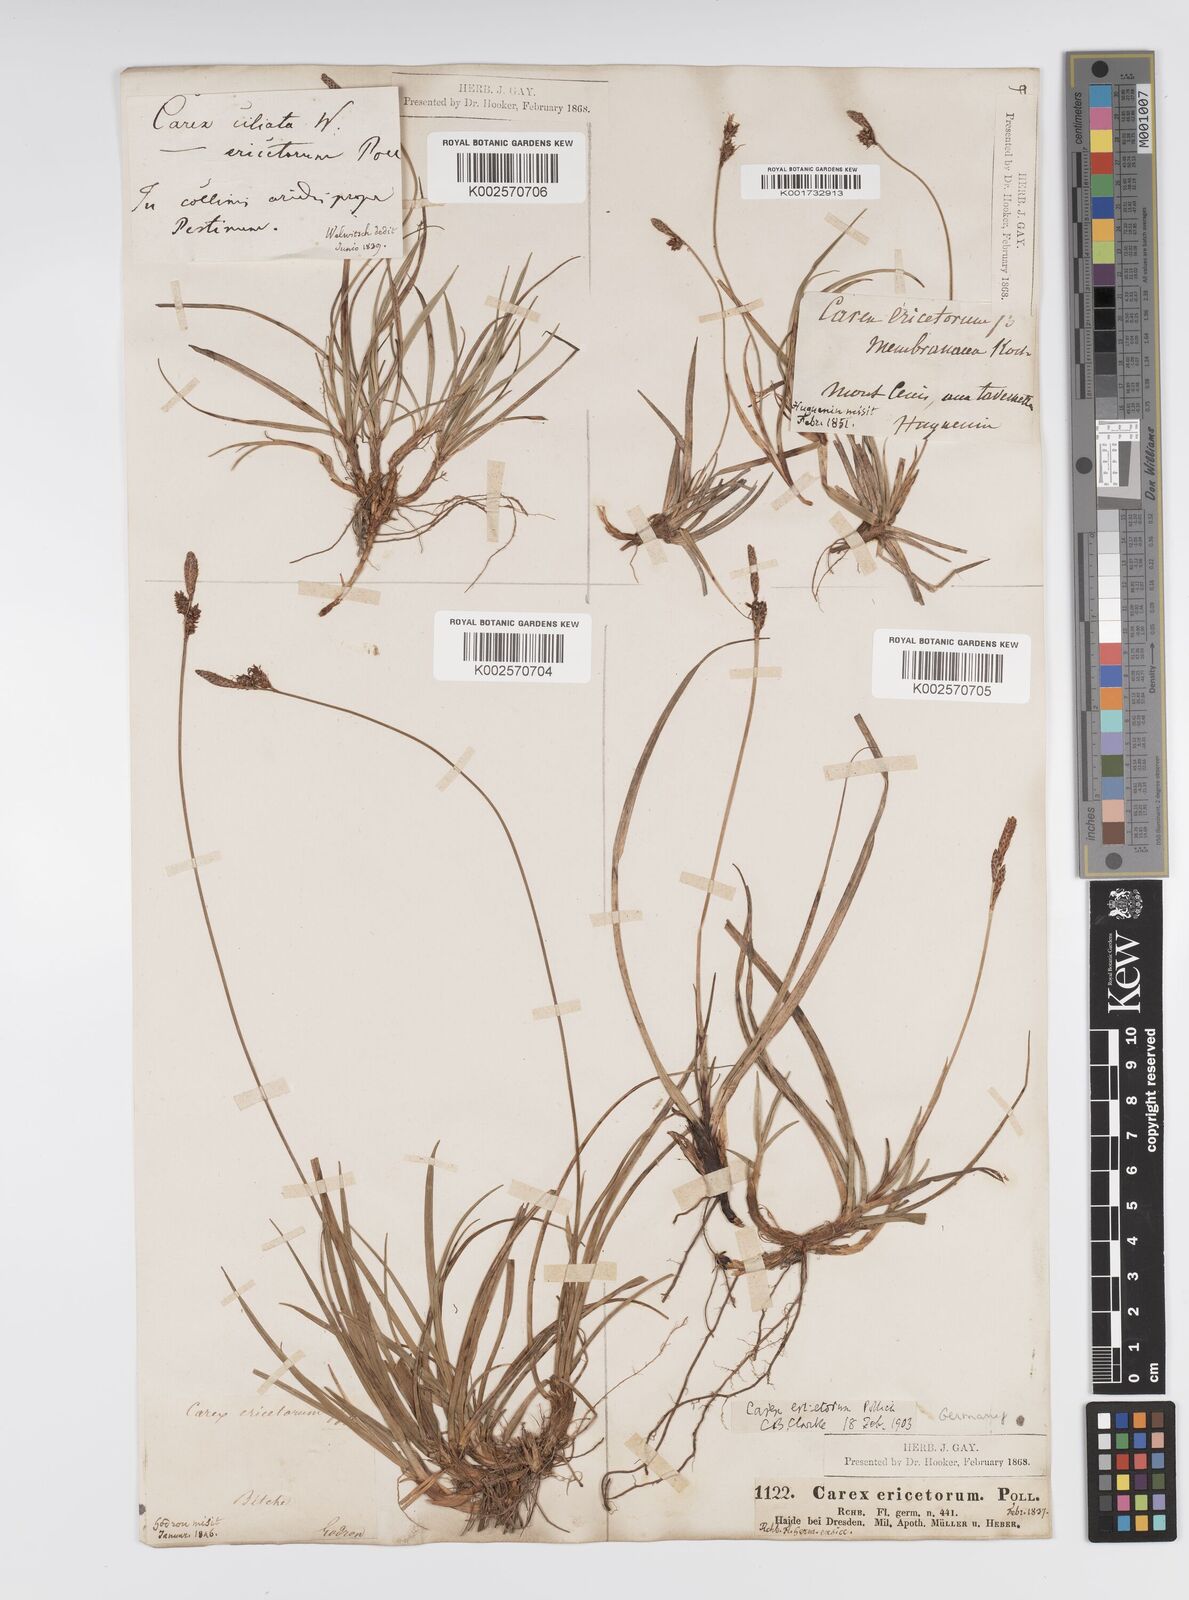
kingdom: Plantae
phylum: Tracheophyta
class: Liliopsida
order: Poales
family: Cyperaceae
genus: Carex
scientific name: Carex ericetorum
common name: Rare spring-sedge
